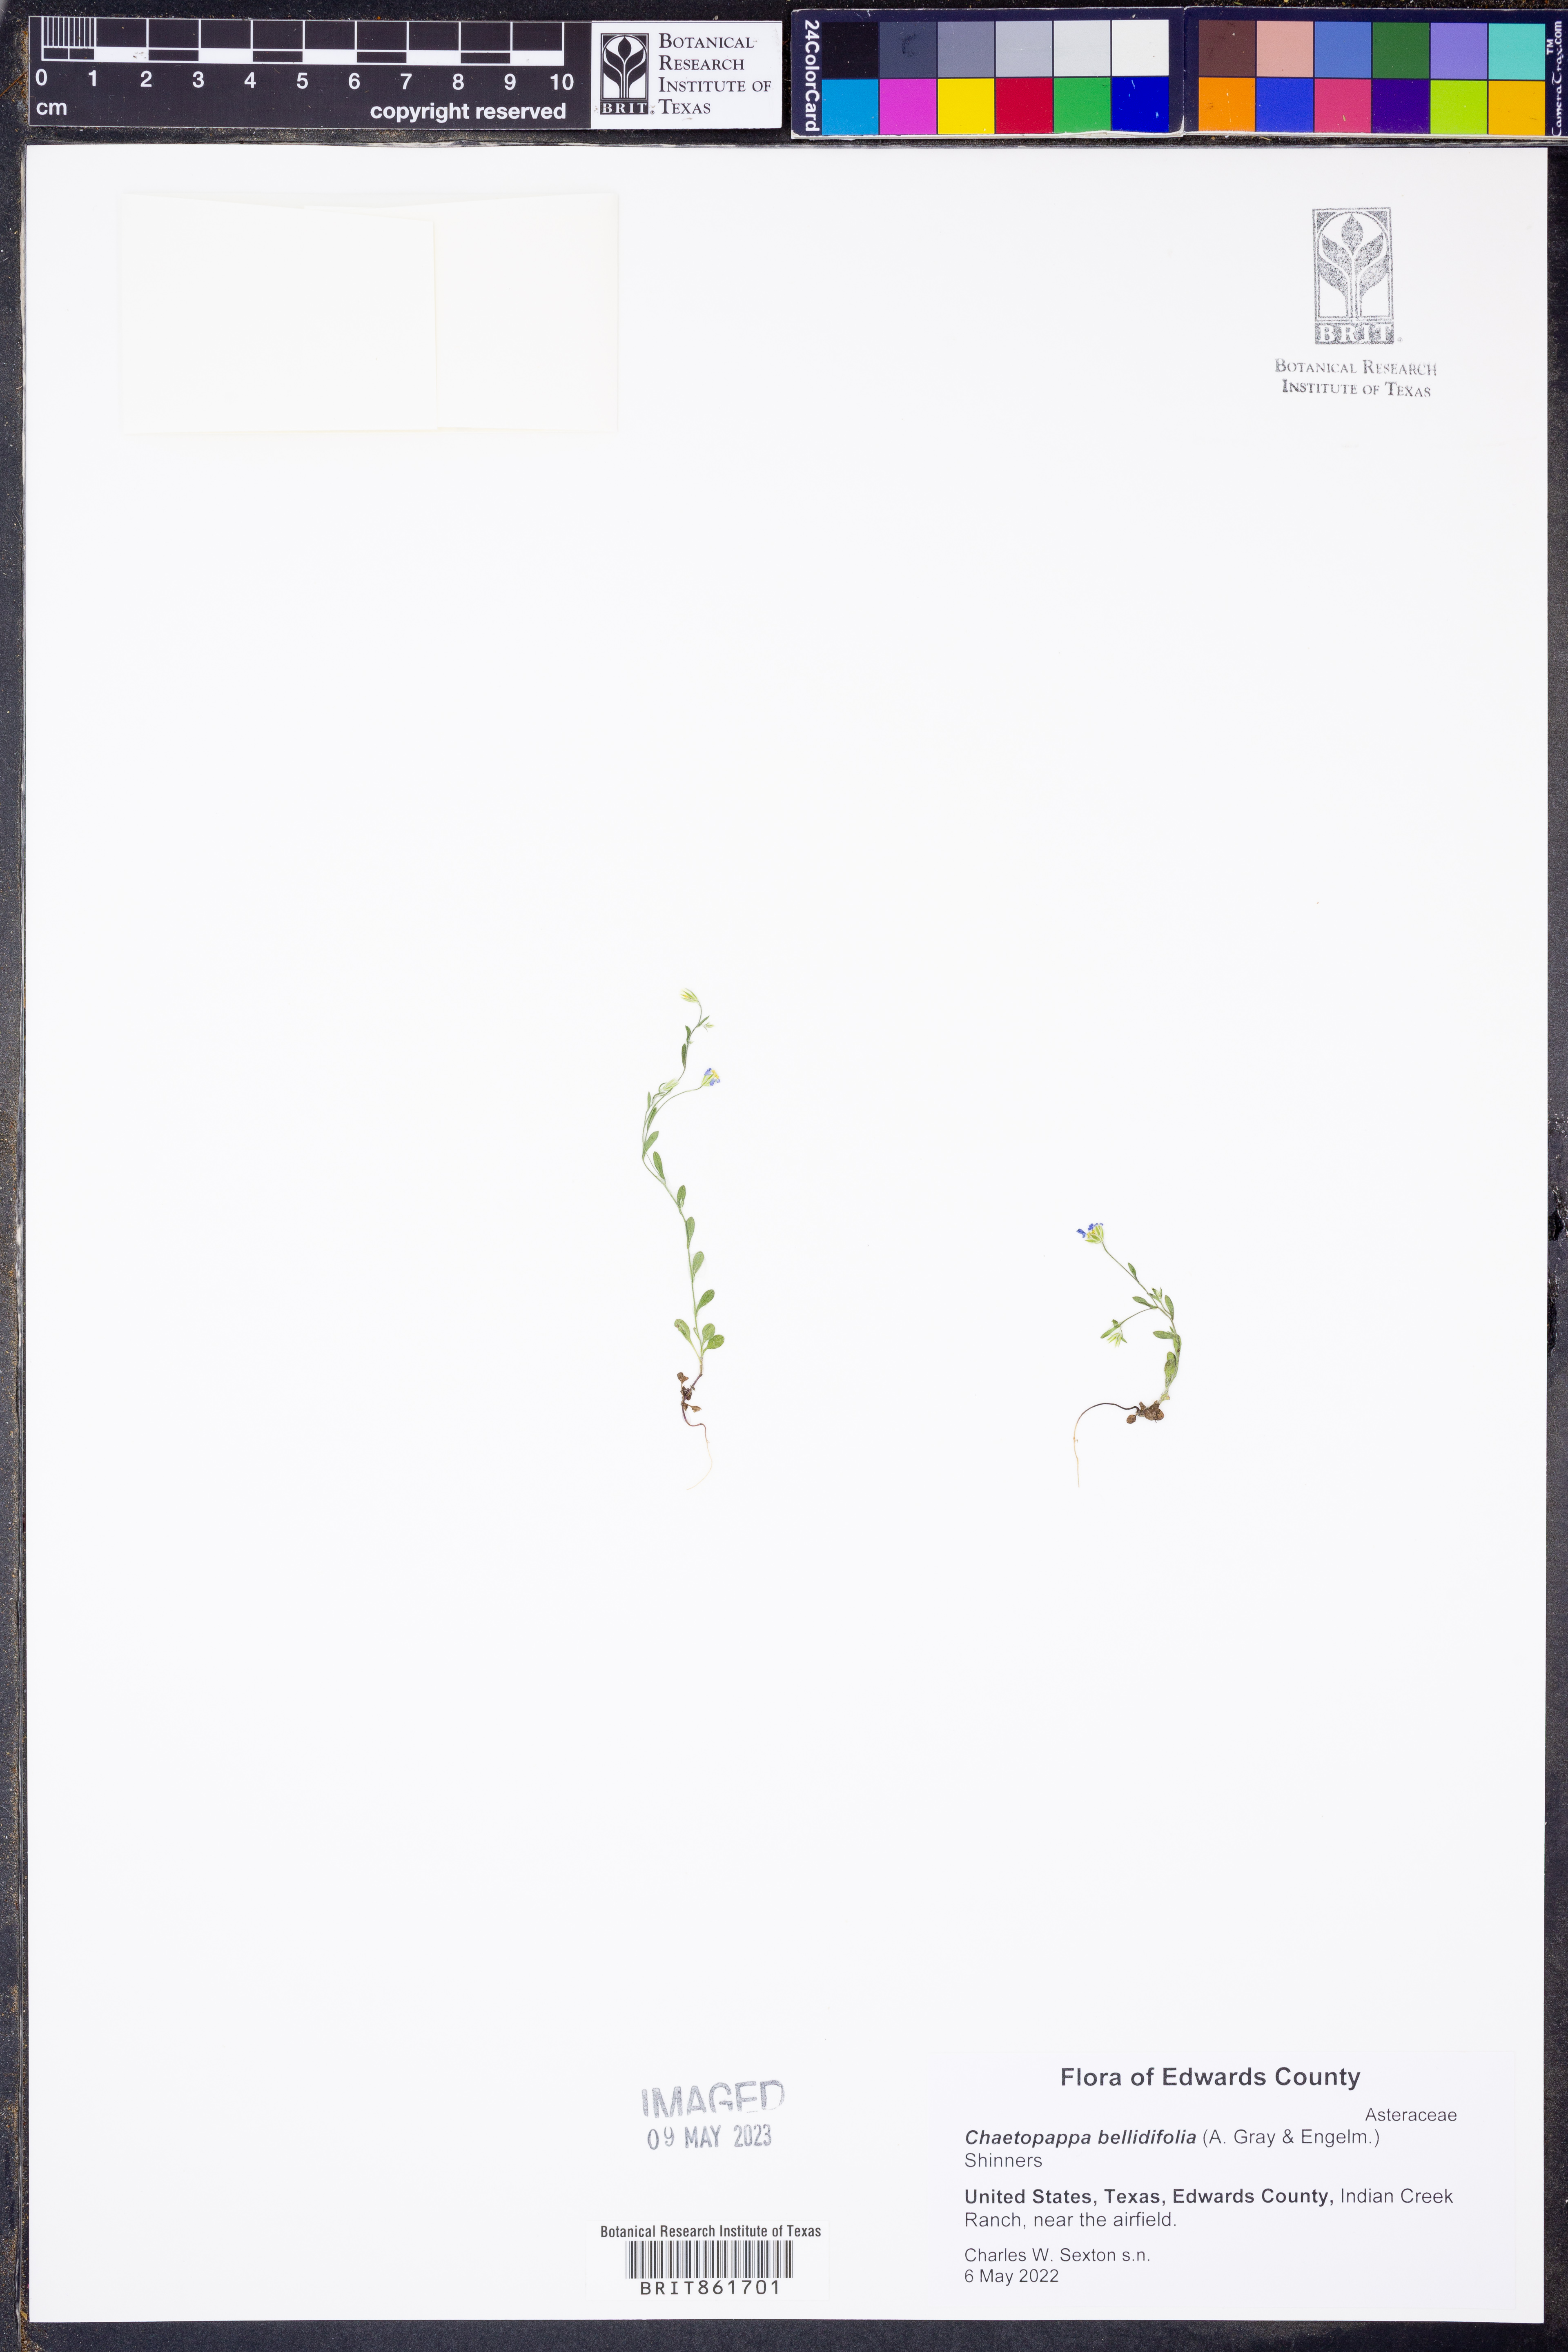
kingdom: Plantae
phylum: Tracheophyta
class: Magnoliopsida
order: Asterales
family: Asteraceae
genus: Chaetopappa
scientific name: Chaetopappa bellidifolia
